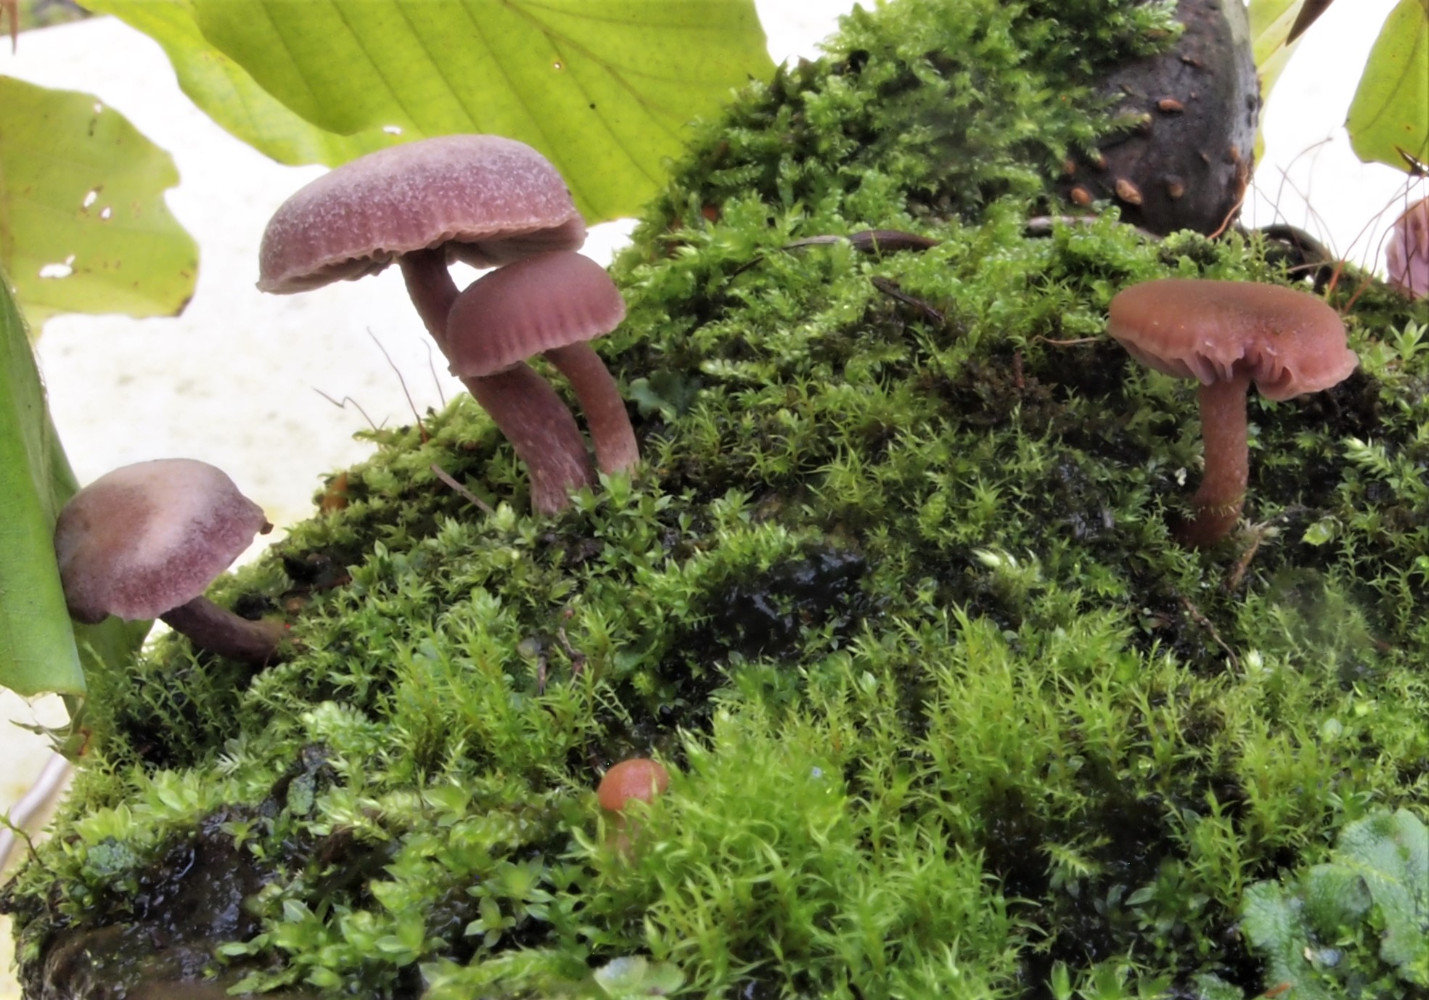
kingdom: Fungi
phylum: Basidiomycota
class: Agaricomycetes
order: Agaricales
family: Hydnangiaceae
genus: Laccaria
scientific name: Laccaria amethystina
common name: violet ametysthat
